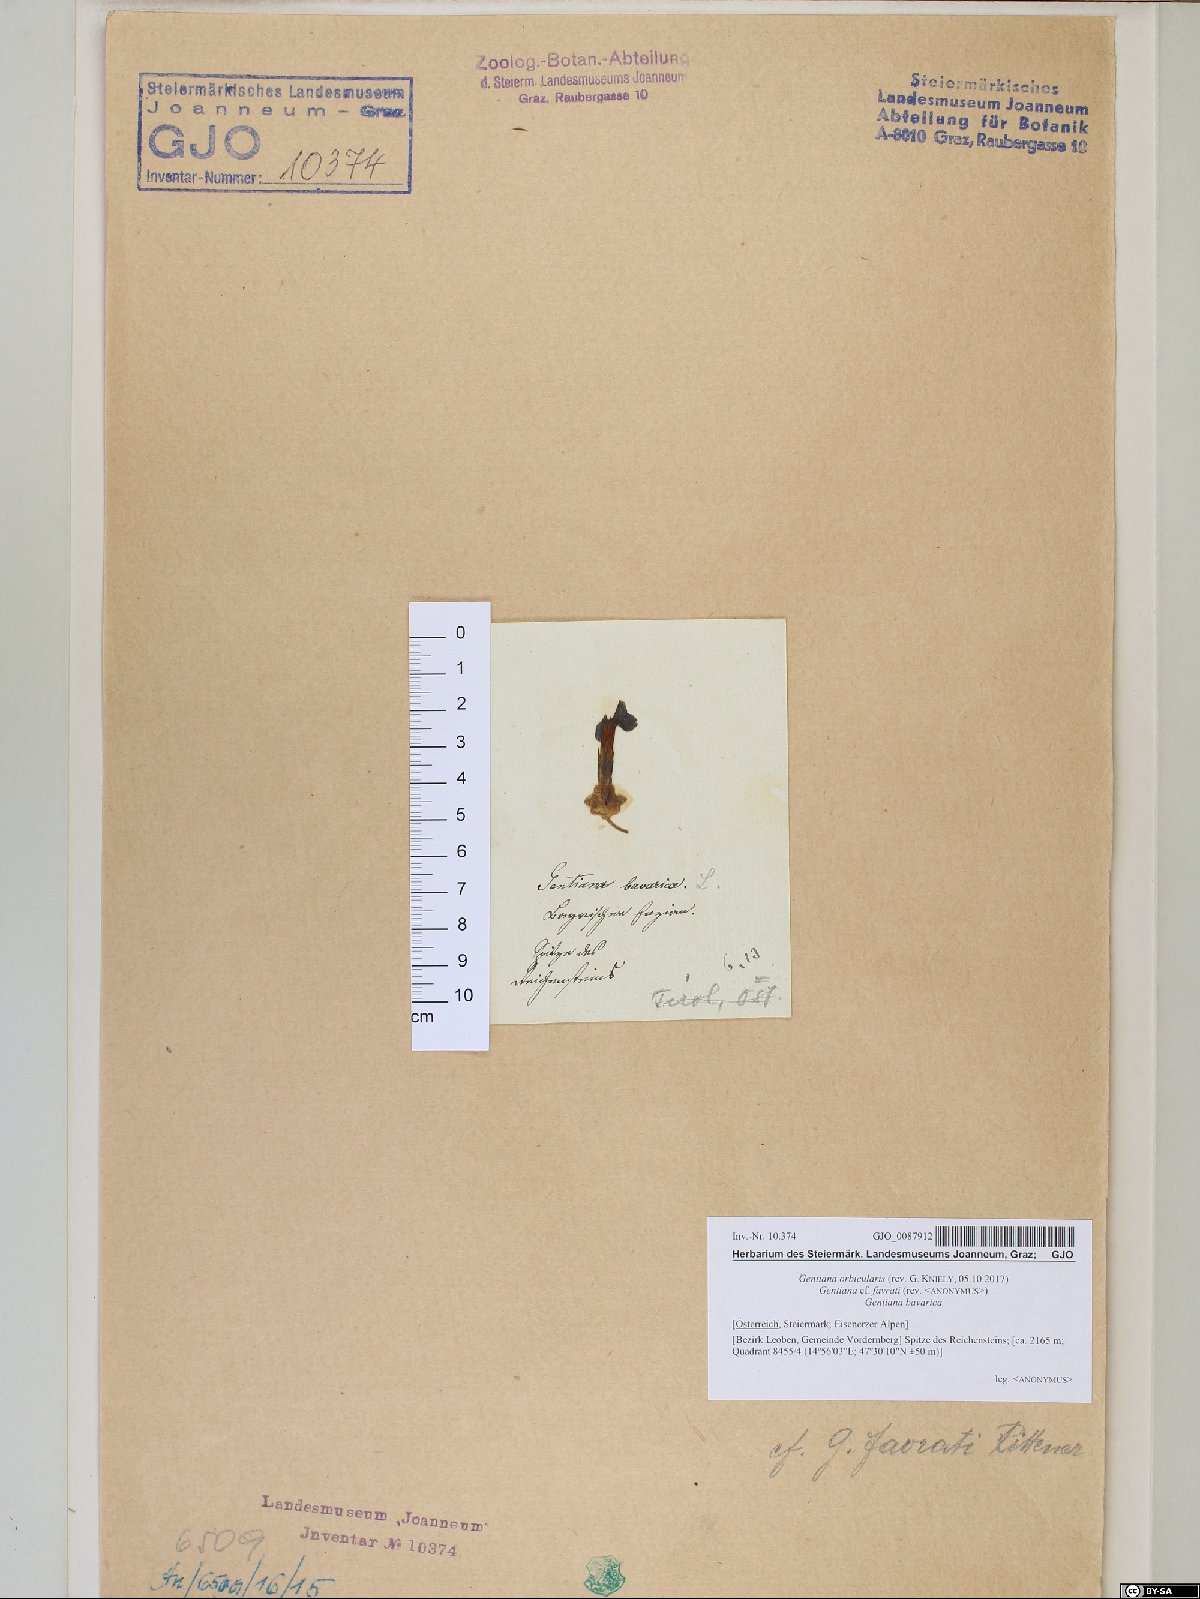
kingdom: Plantae
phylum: Tracheophyta
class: Magnoliopsida
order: Gentianales
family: Gentianaceae
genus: Gentiana
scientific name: Gentiana orbicularis
